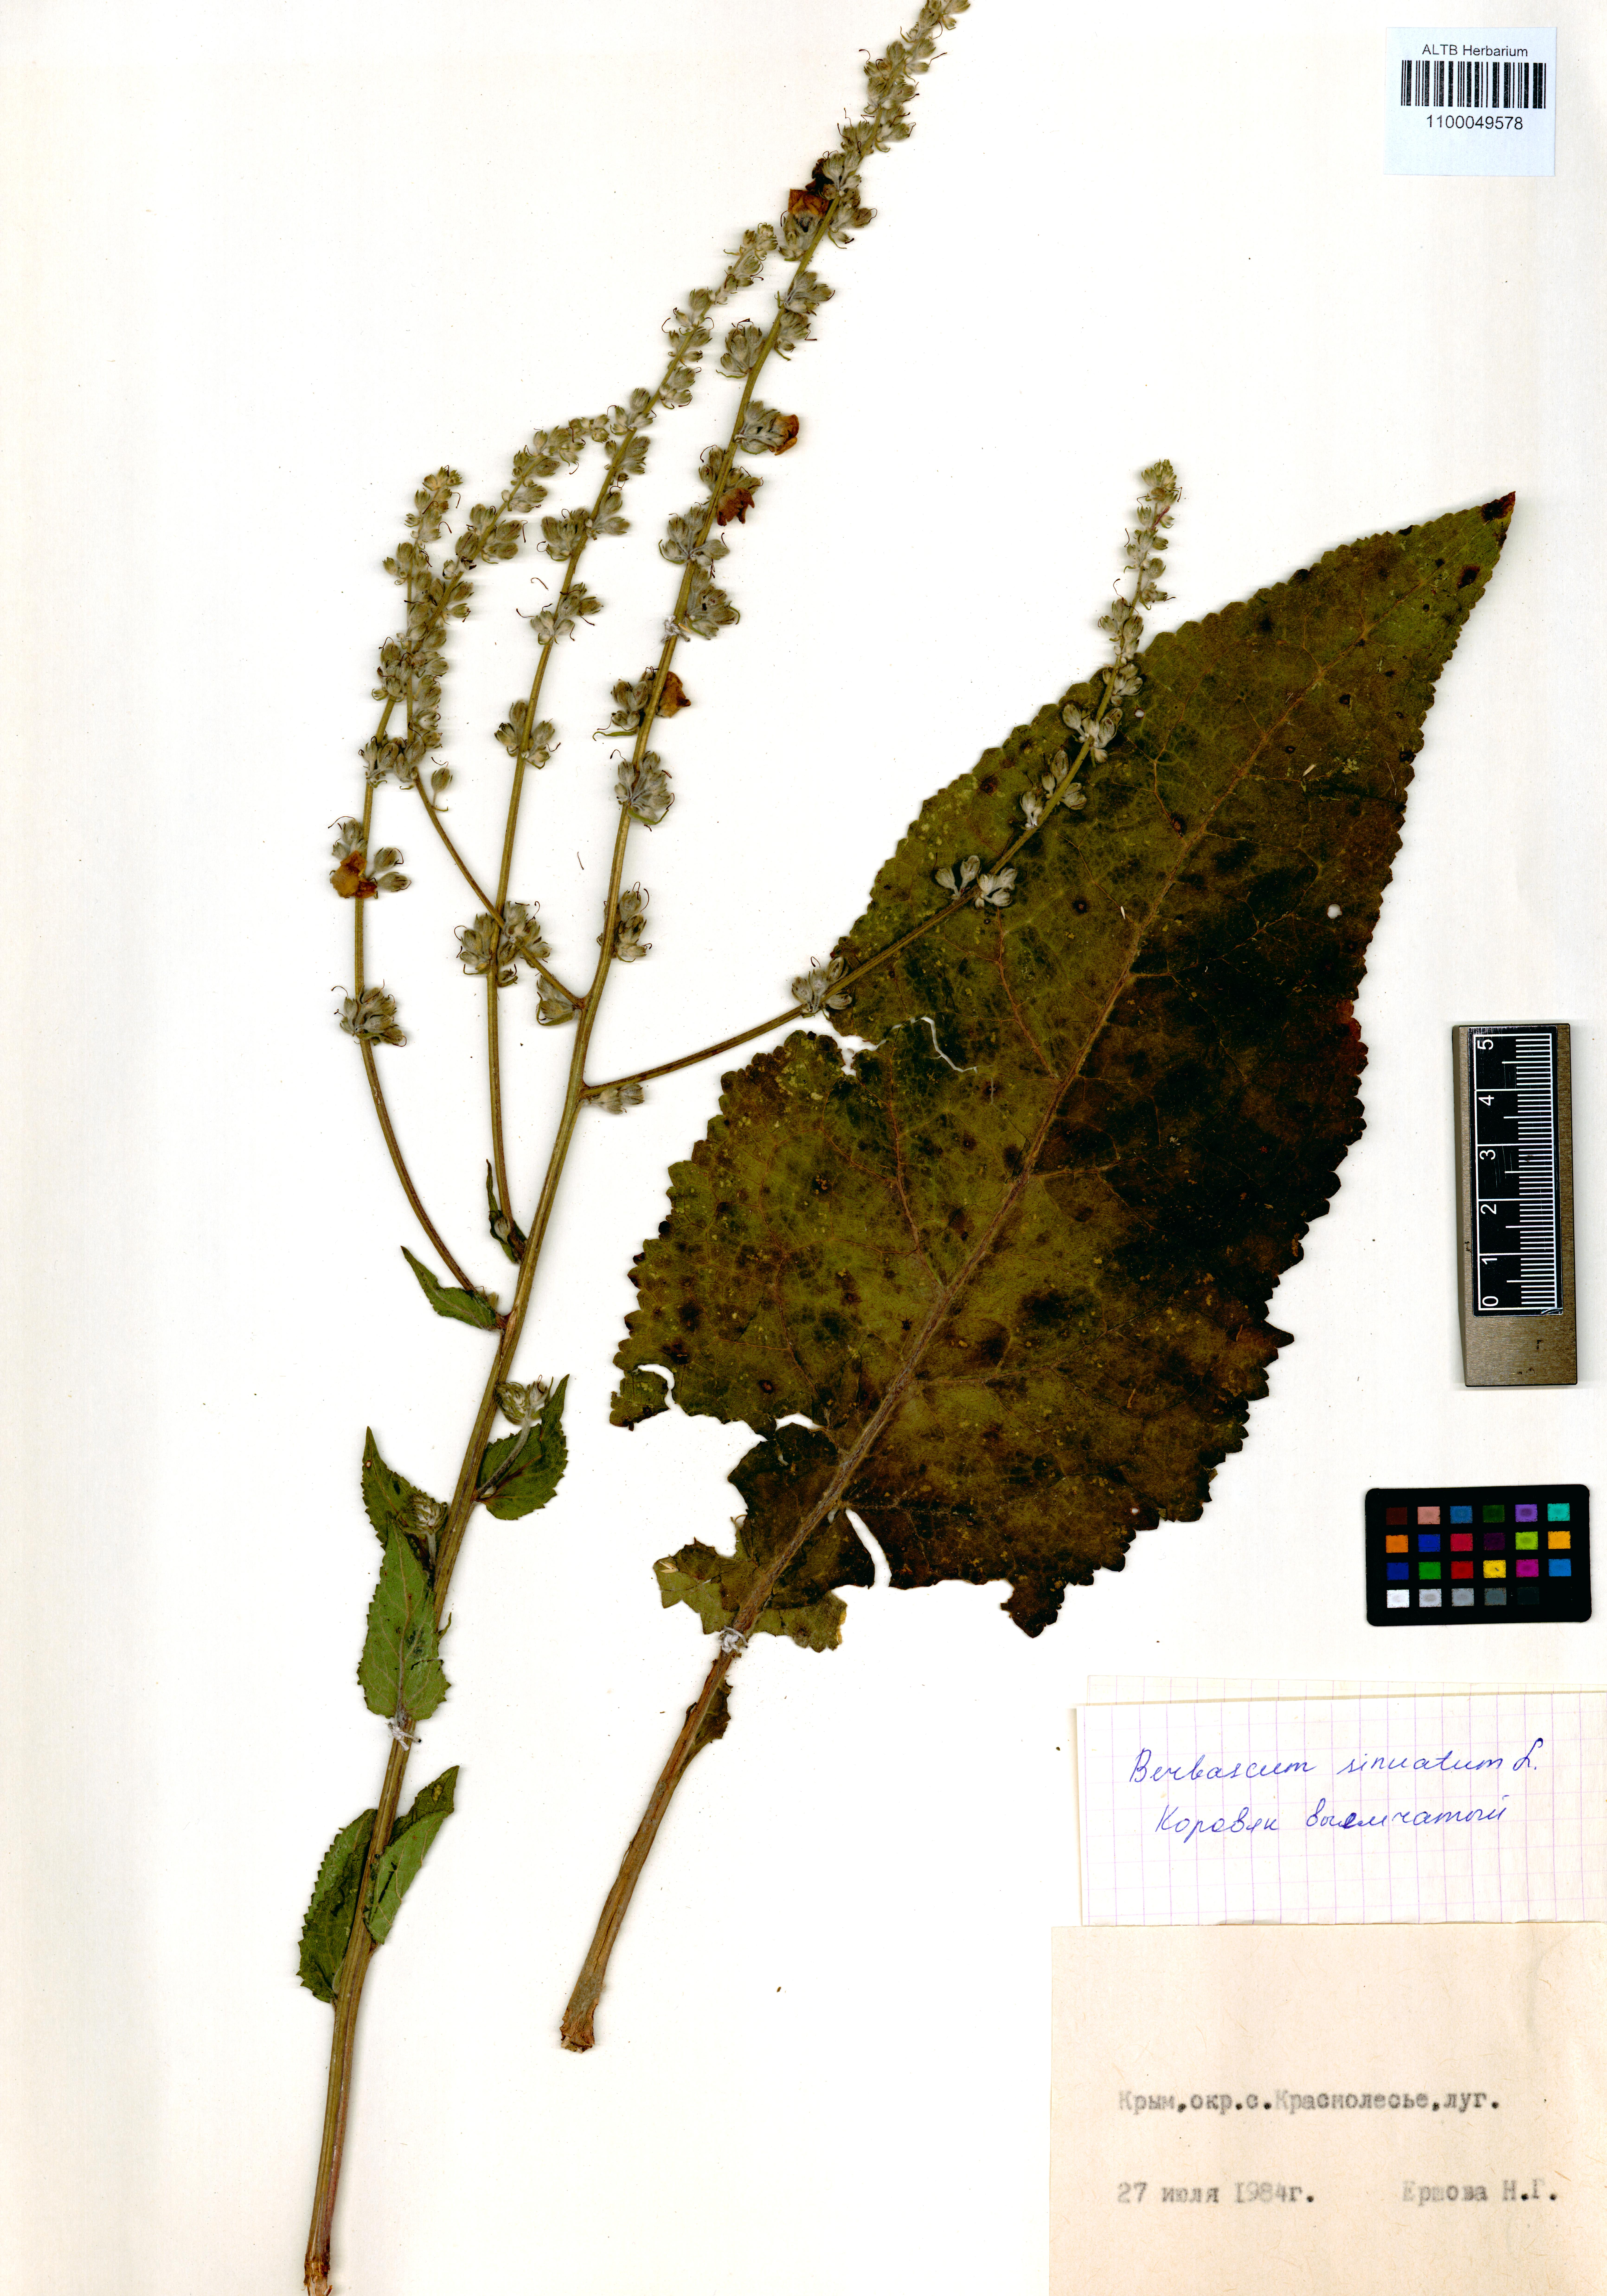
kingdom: Plantae
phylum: Tracheophyta
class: Magnoliopsida
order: Lamiales
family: Scrophulariaceae
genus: Verbascum
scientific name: Verbascum sinuatum
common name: Wavyleaf mullein
